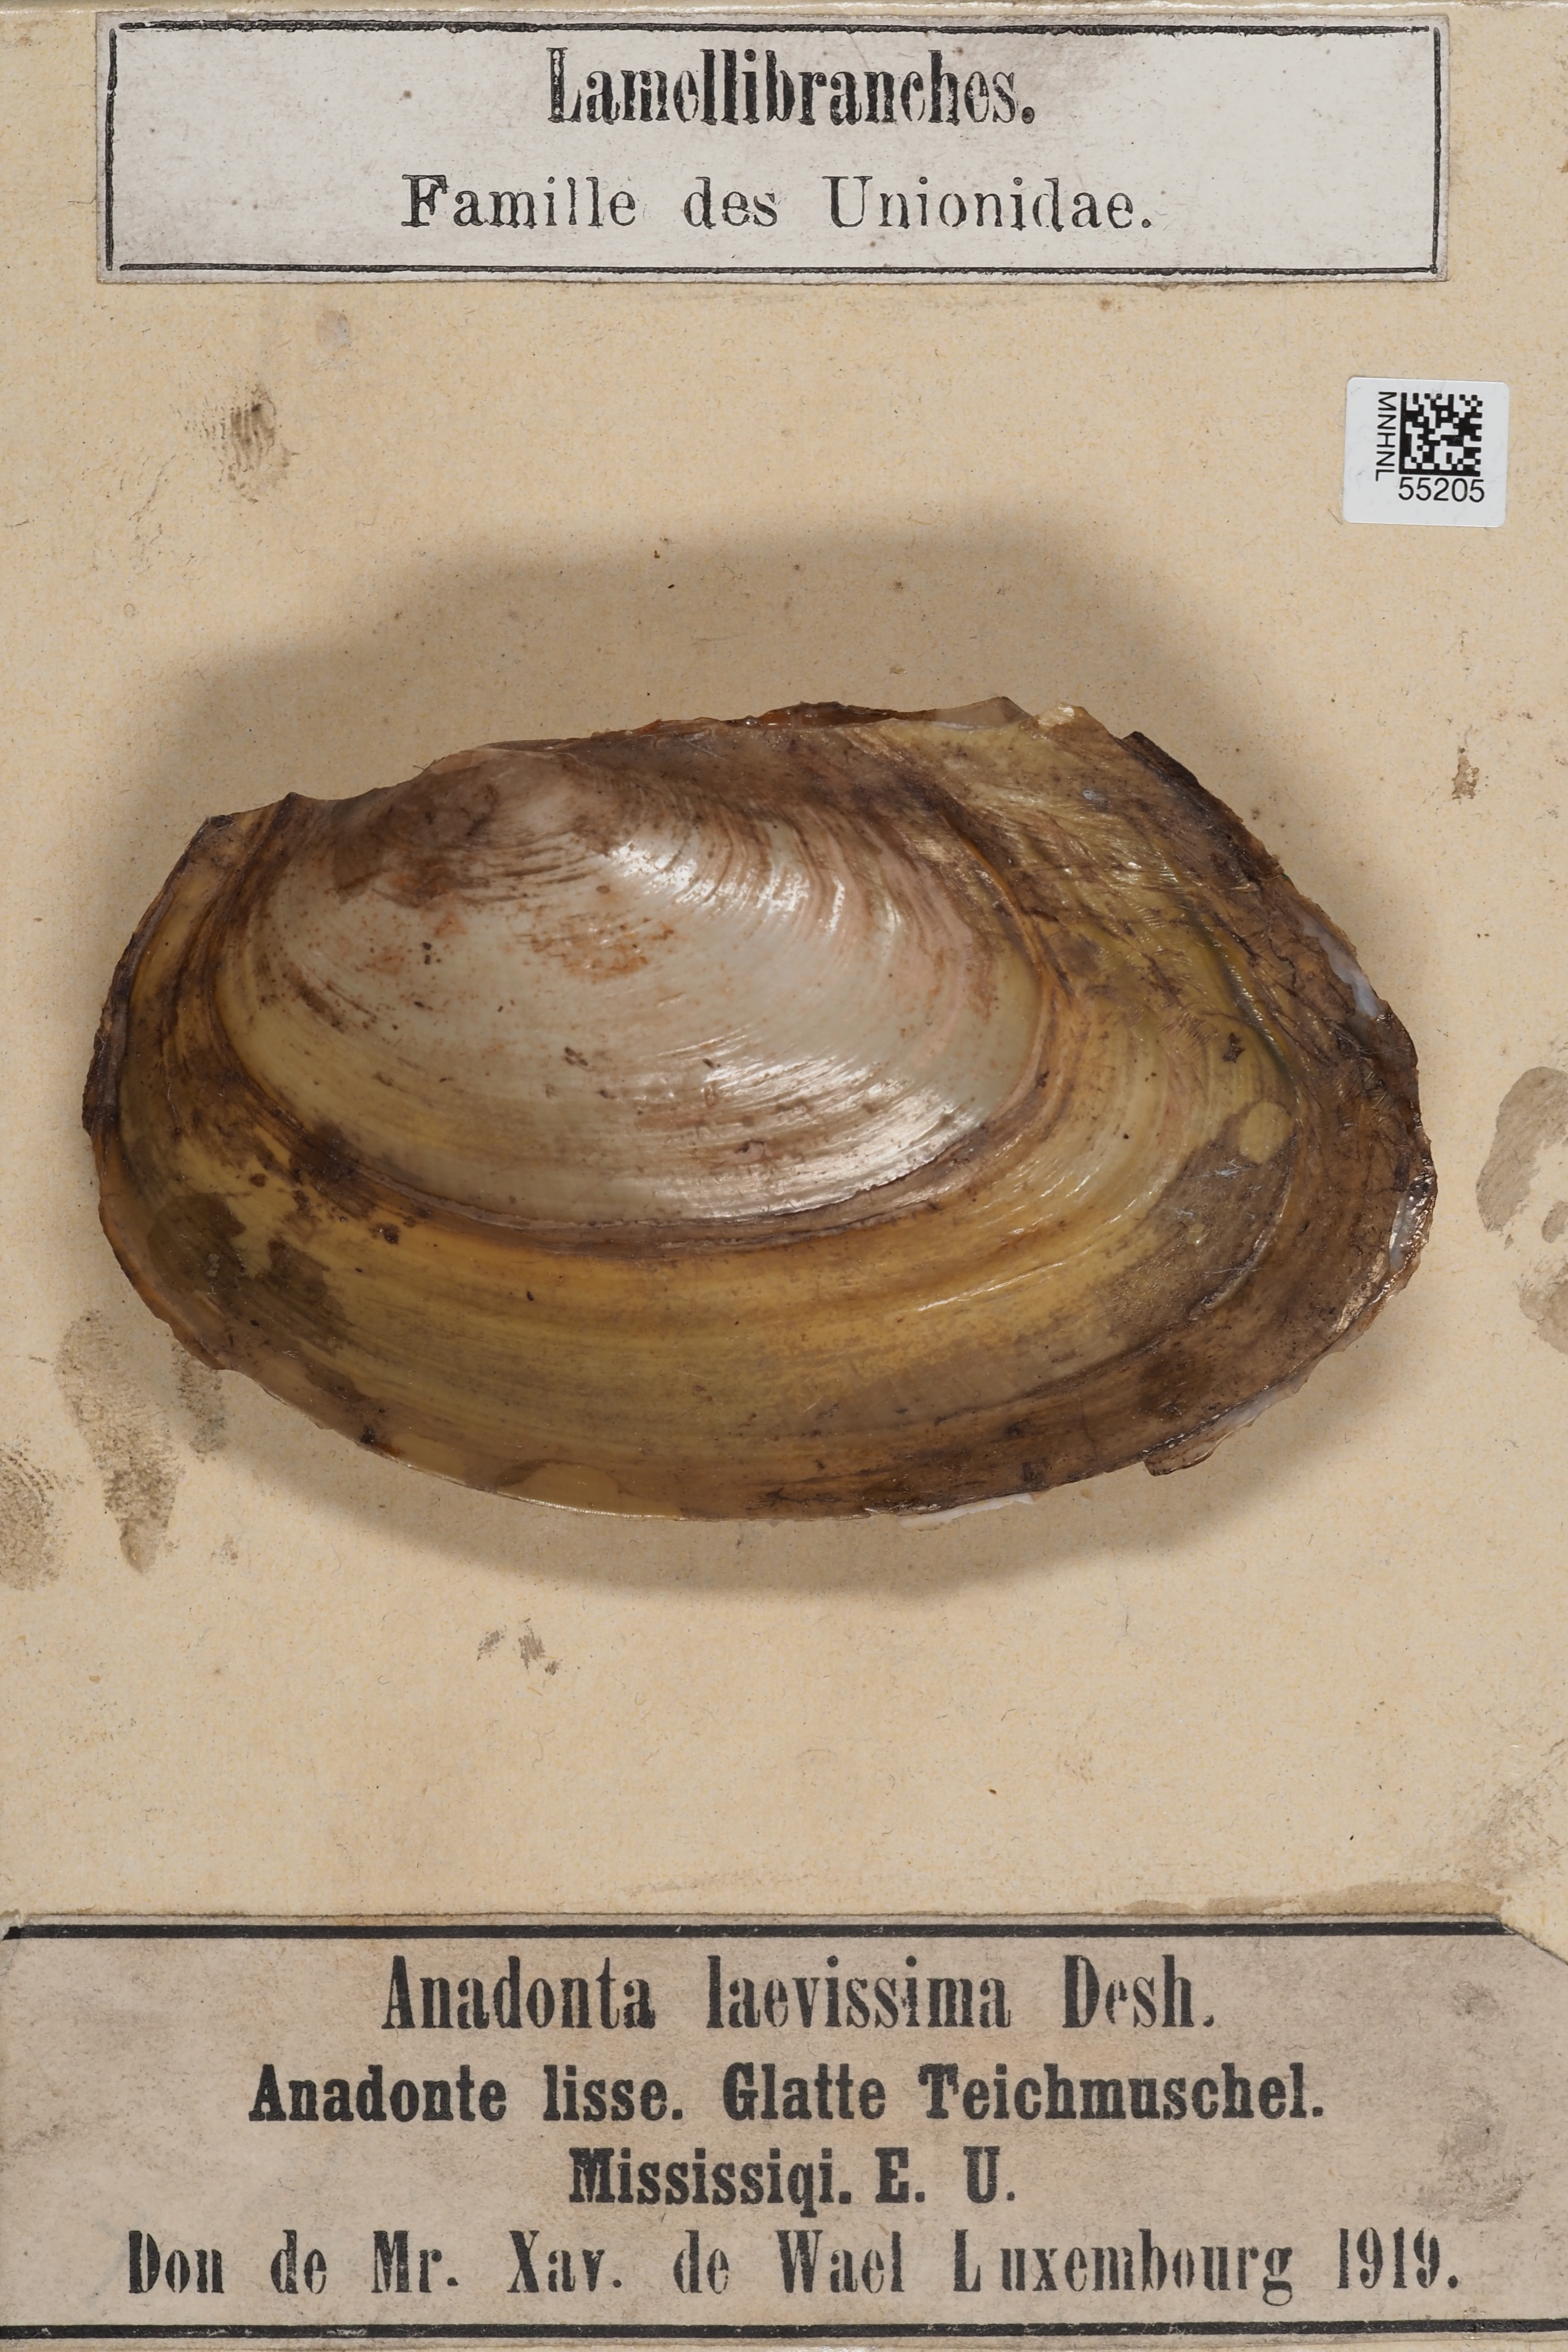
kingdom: Animalia
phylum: Mollusca
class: Bivalvia
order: Unionida
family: Unionidae
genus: Anodonta
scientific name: Anodonta
